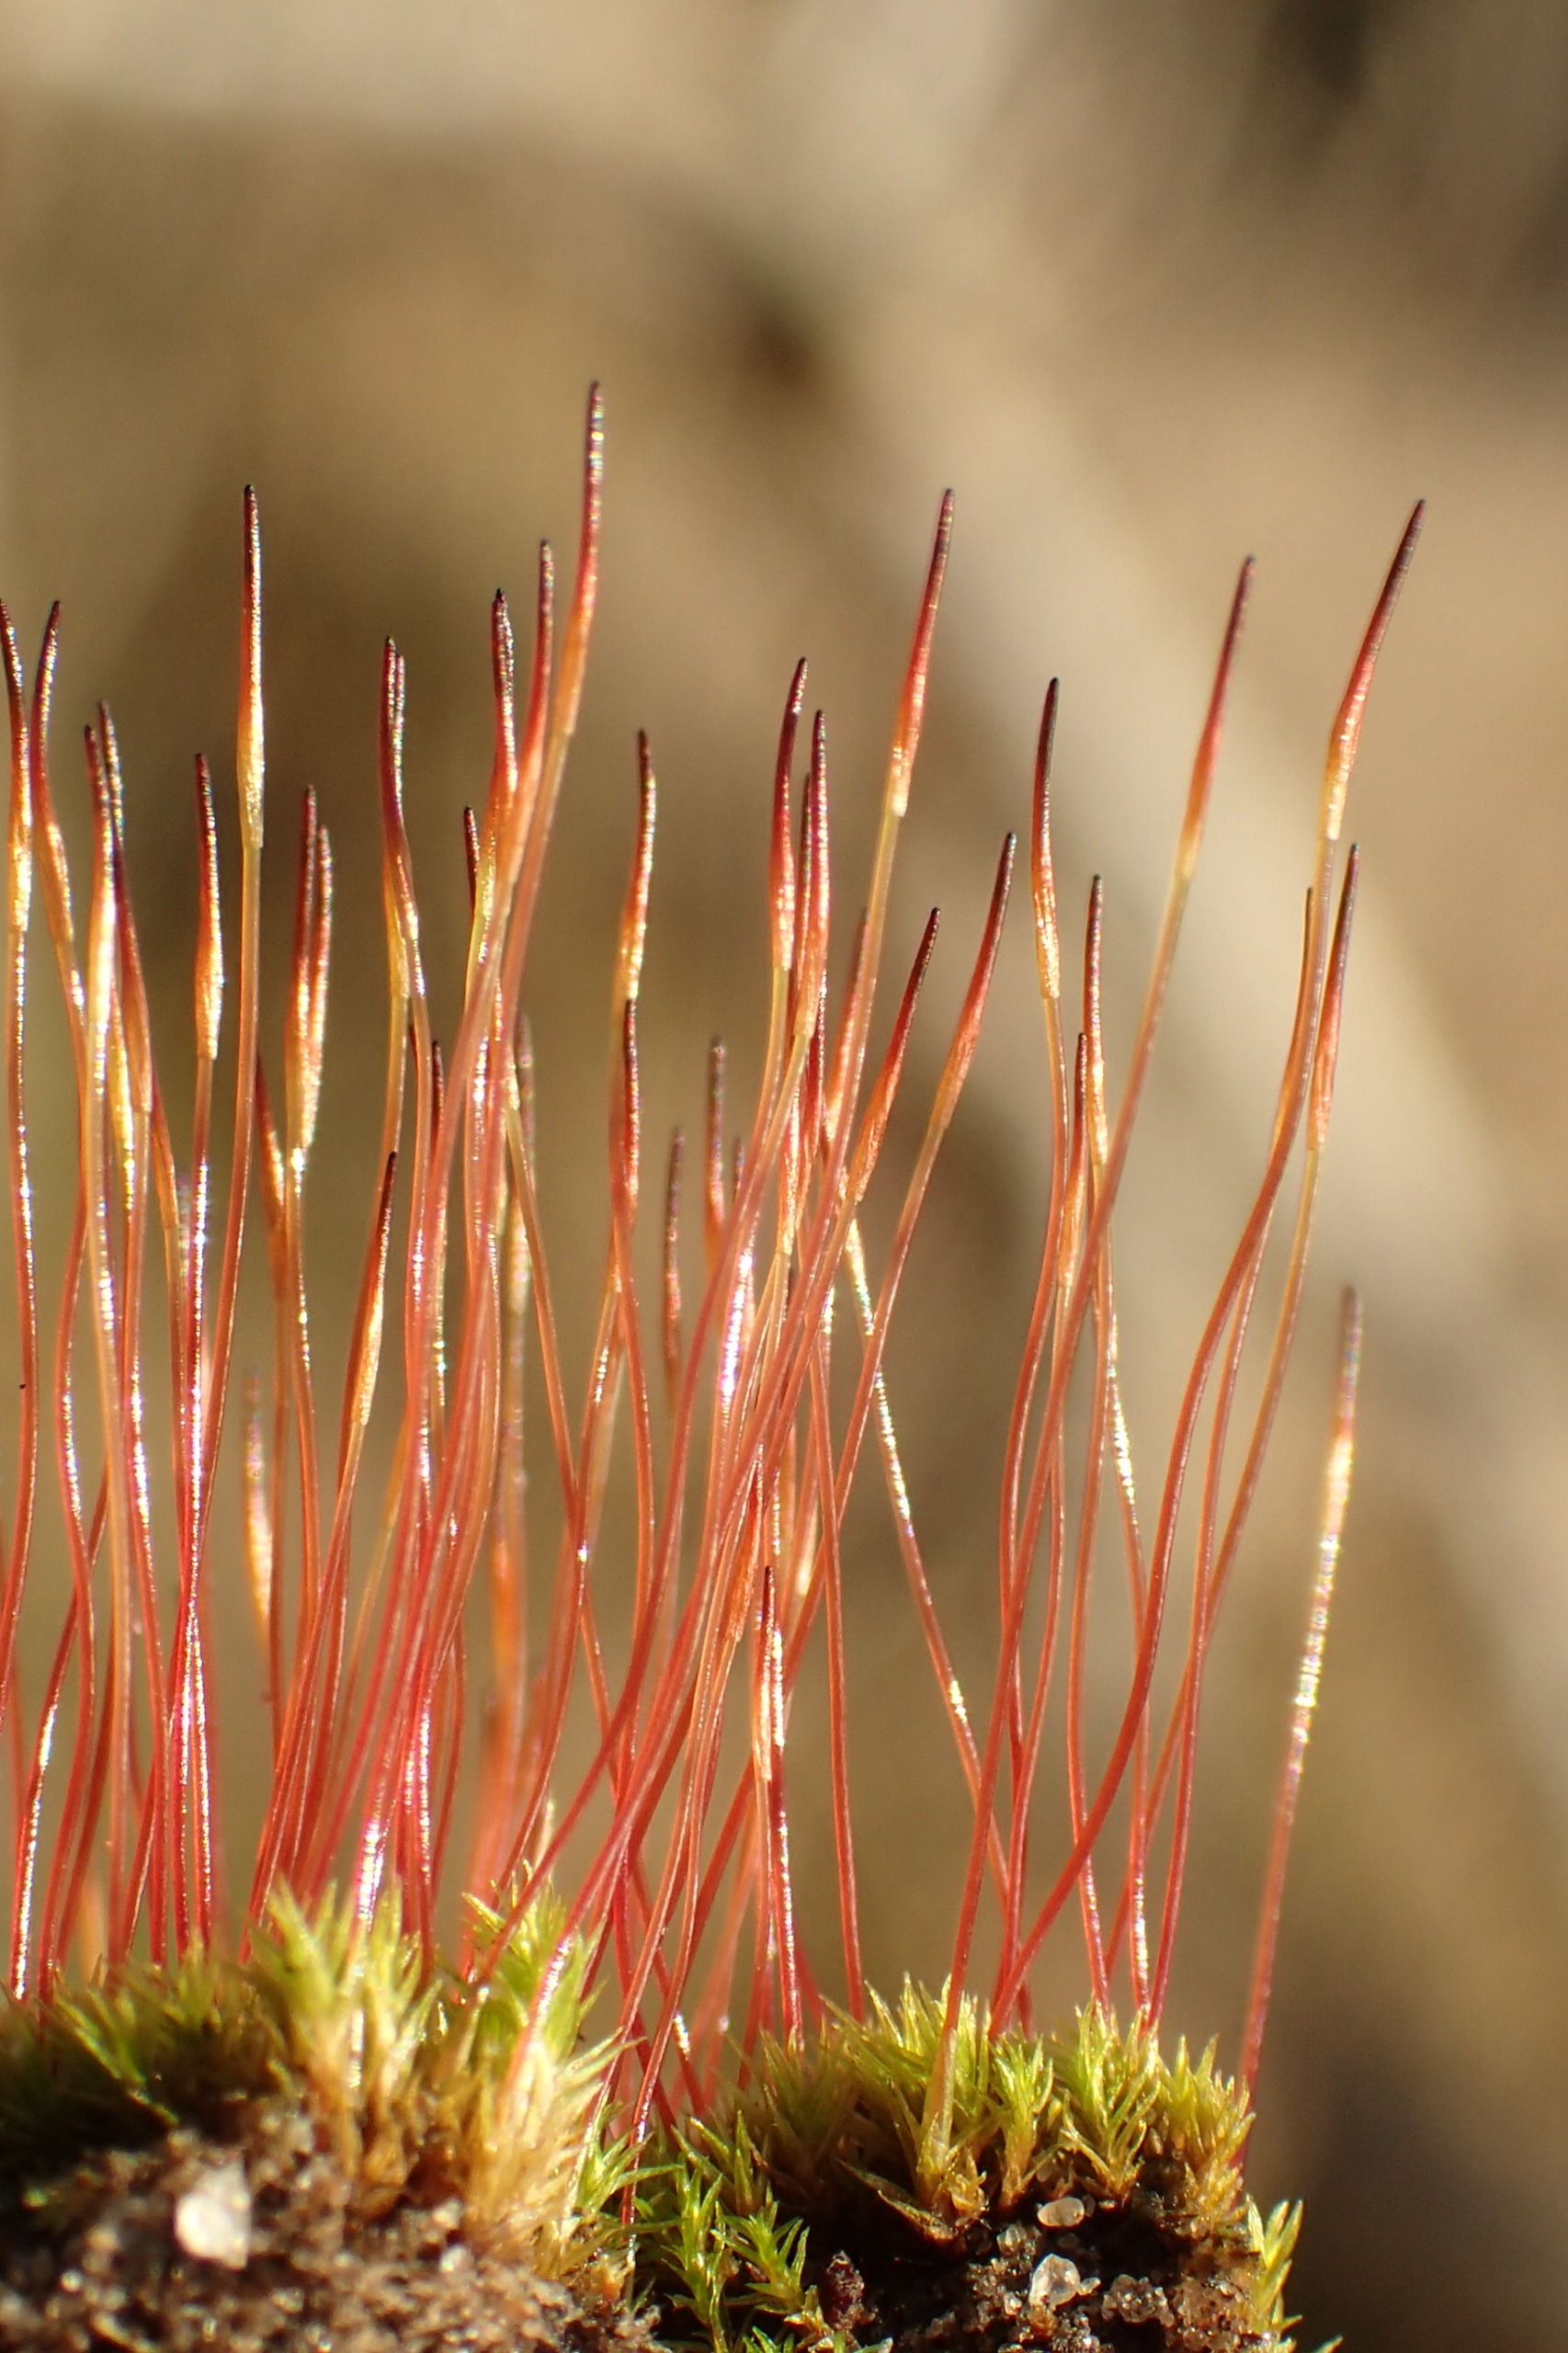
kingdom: Plantae
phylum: Bryophyta
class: Bryopsida
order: Dicranales
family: Ditrichaceae
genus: Ceratodon
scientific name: Ceratodon purpureus
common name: Rød horntand
